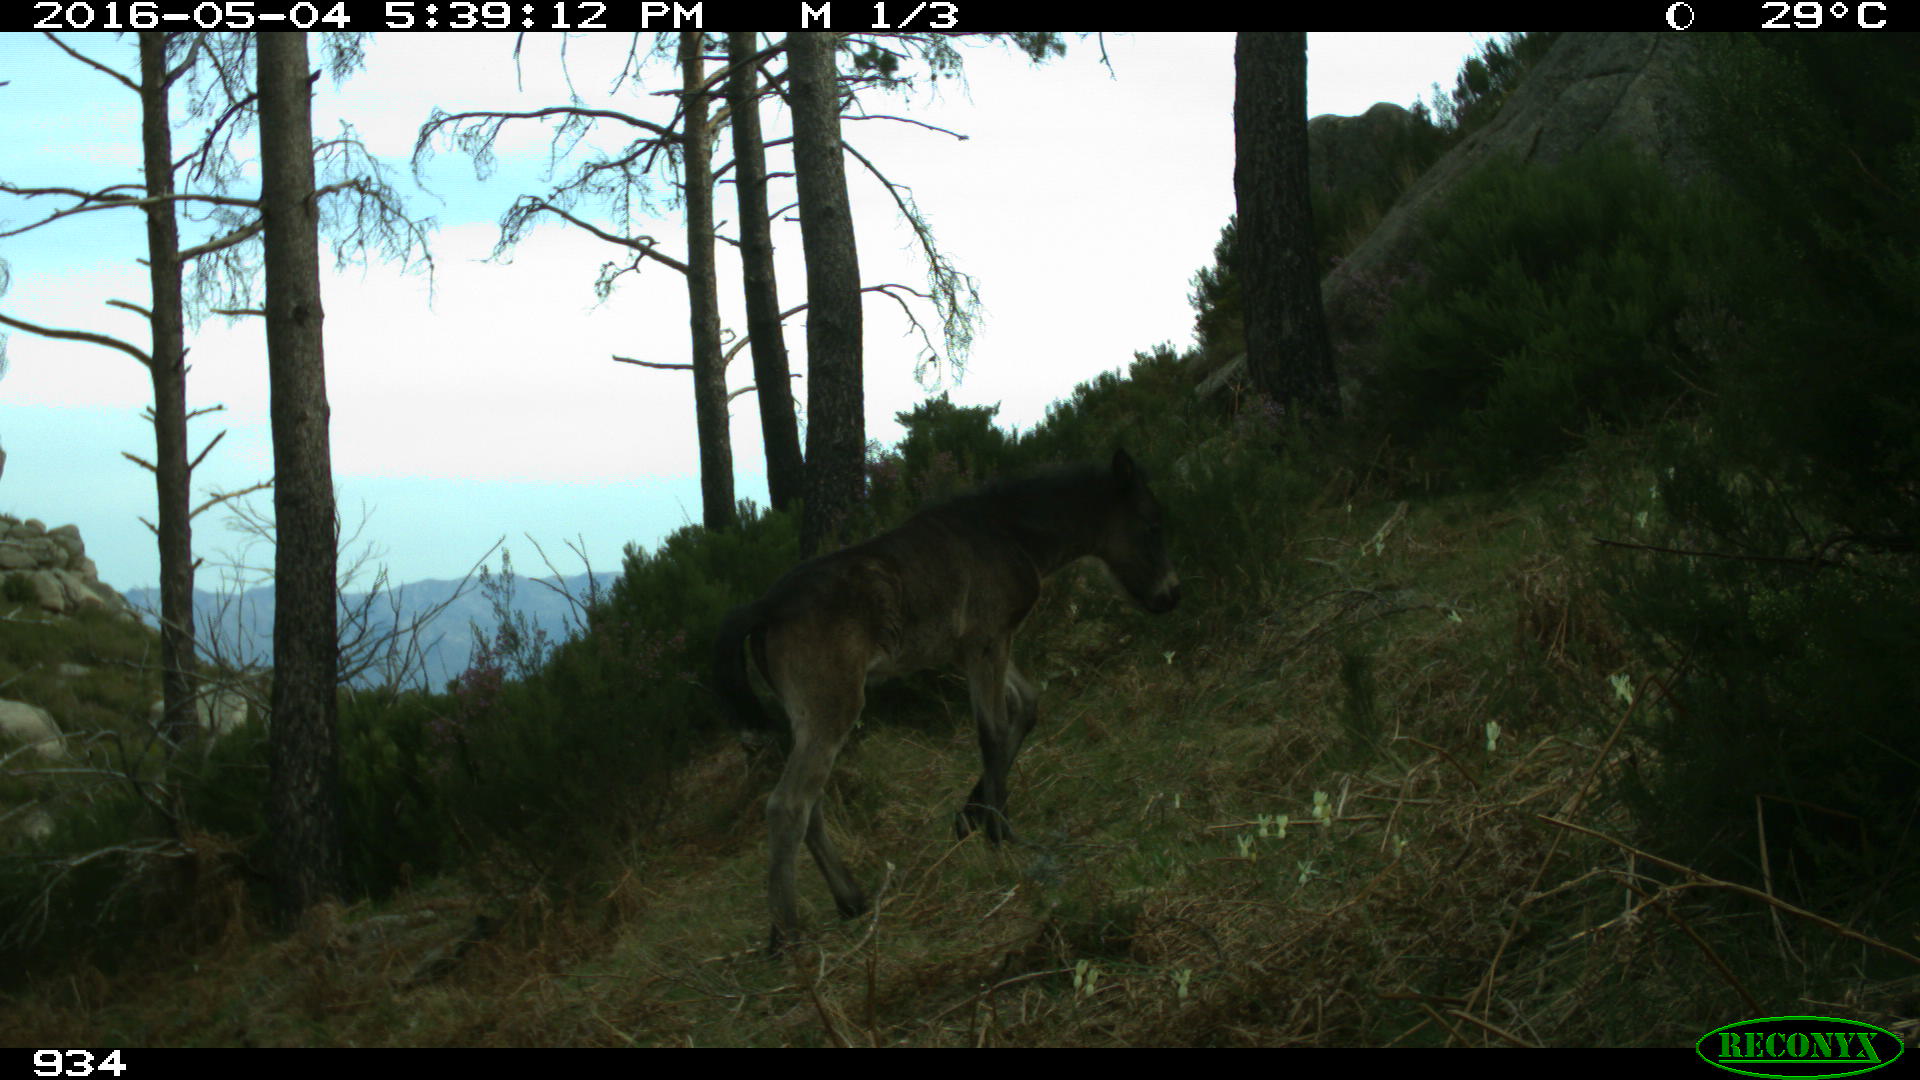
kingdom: Animalia
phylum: Chordata
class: Mammalia
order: Perissodactyla
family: Equidae
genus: Equus
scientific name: Equus caballus
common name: Horse
